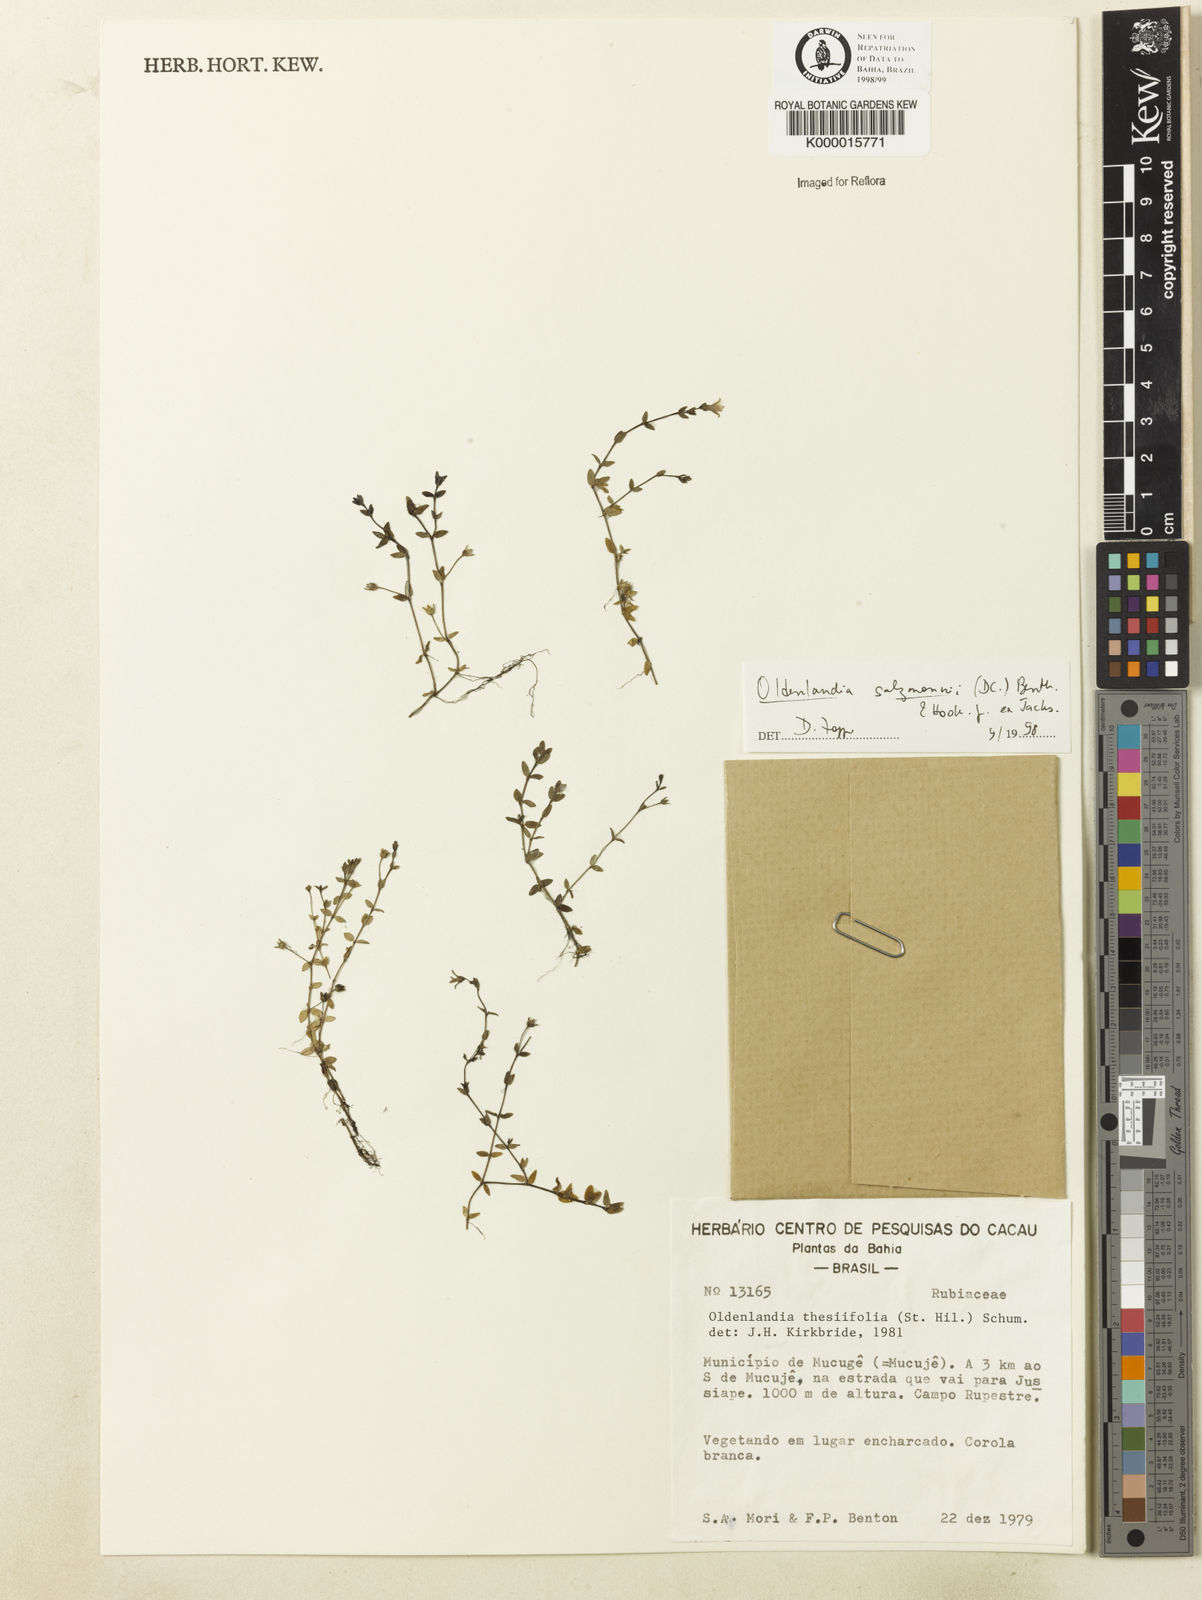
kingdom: Plantae
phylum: Tracheophyta
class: Magnoliopsida
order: Gentianales
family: Rubiaceae
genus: Oldenlandia
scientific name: Oldenlandia salzmannii
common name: Salzmann's mille graines
